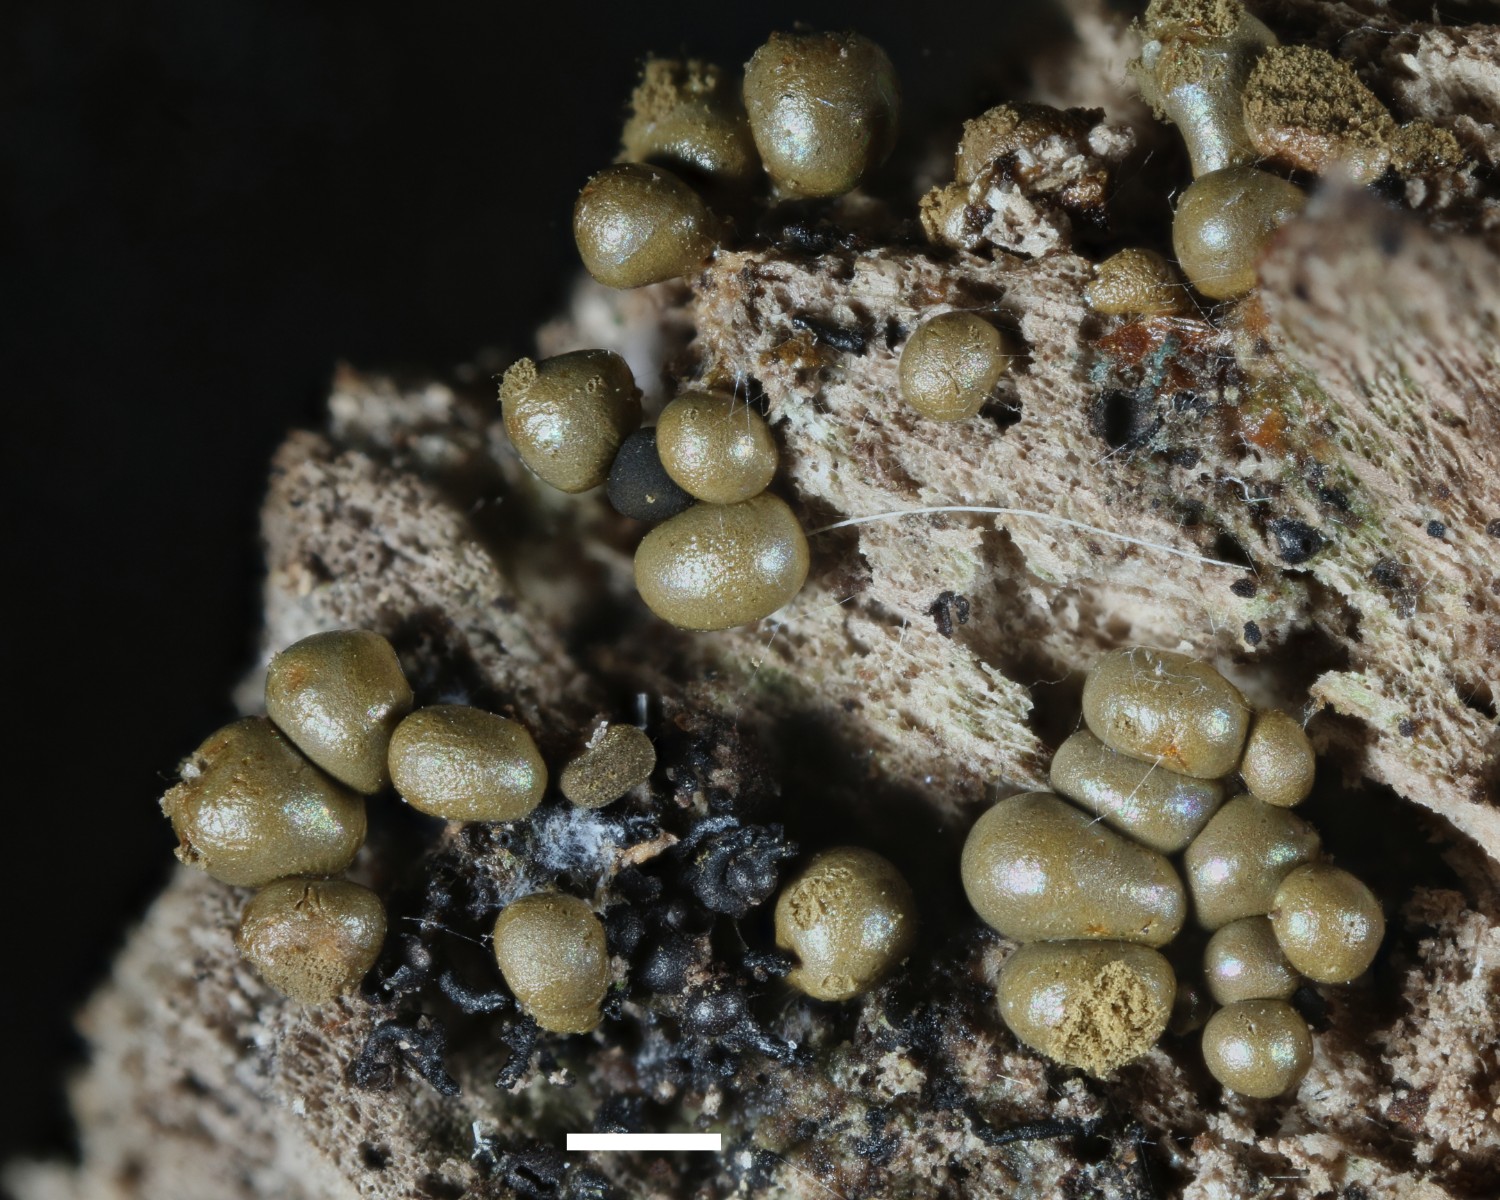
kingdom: Protozoa
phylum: Mycetozoa
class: Myxomycetes
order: Trichiales
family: Trichiaceae
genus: Trichia
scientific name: Trichia crateriformis
